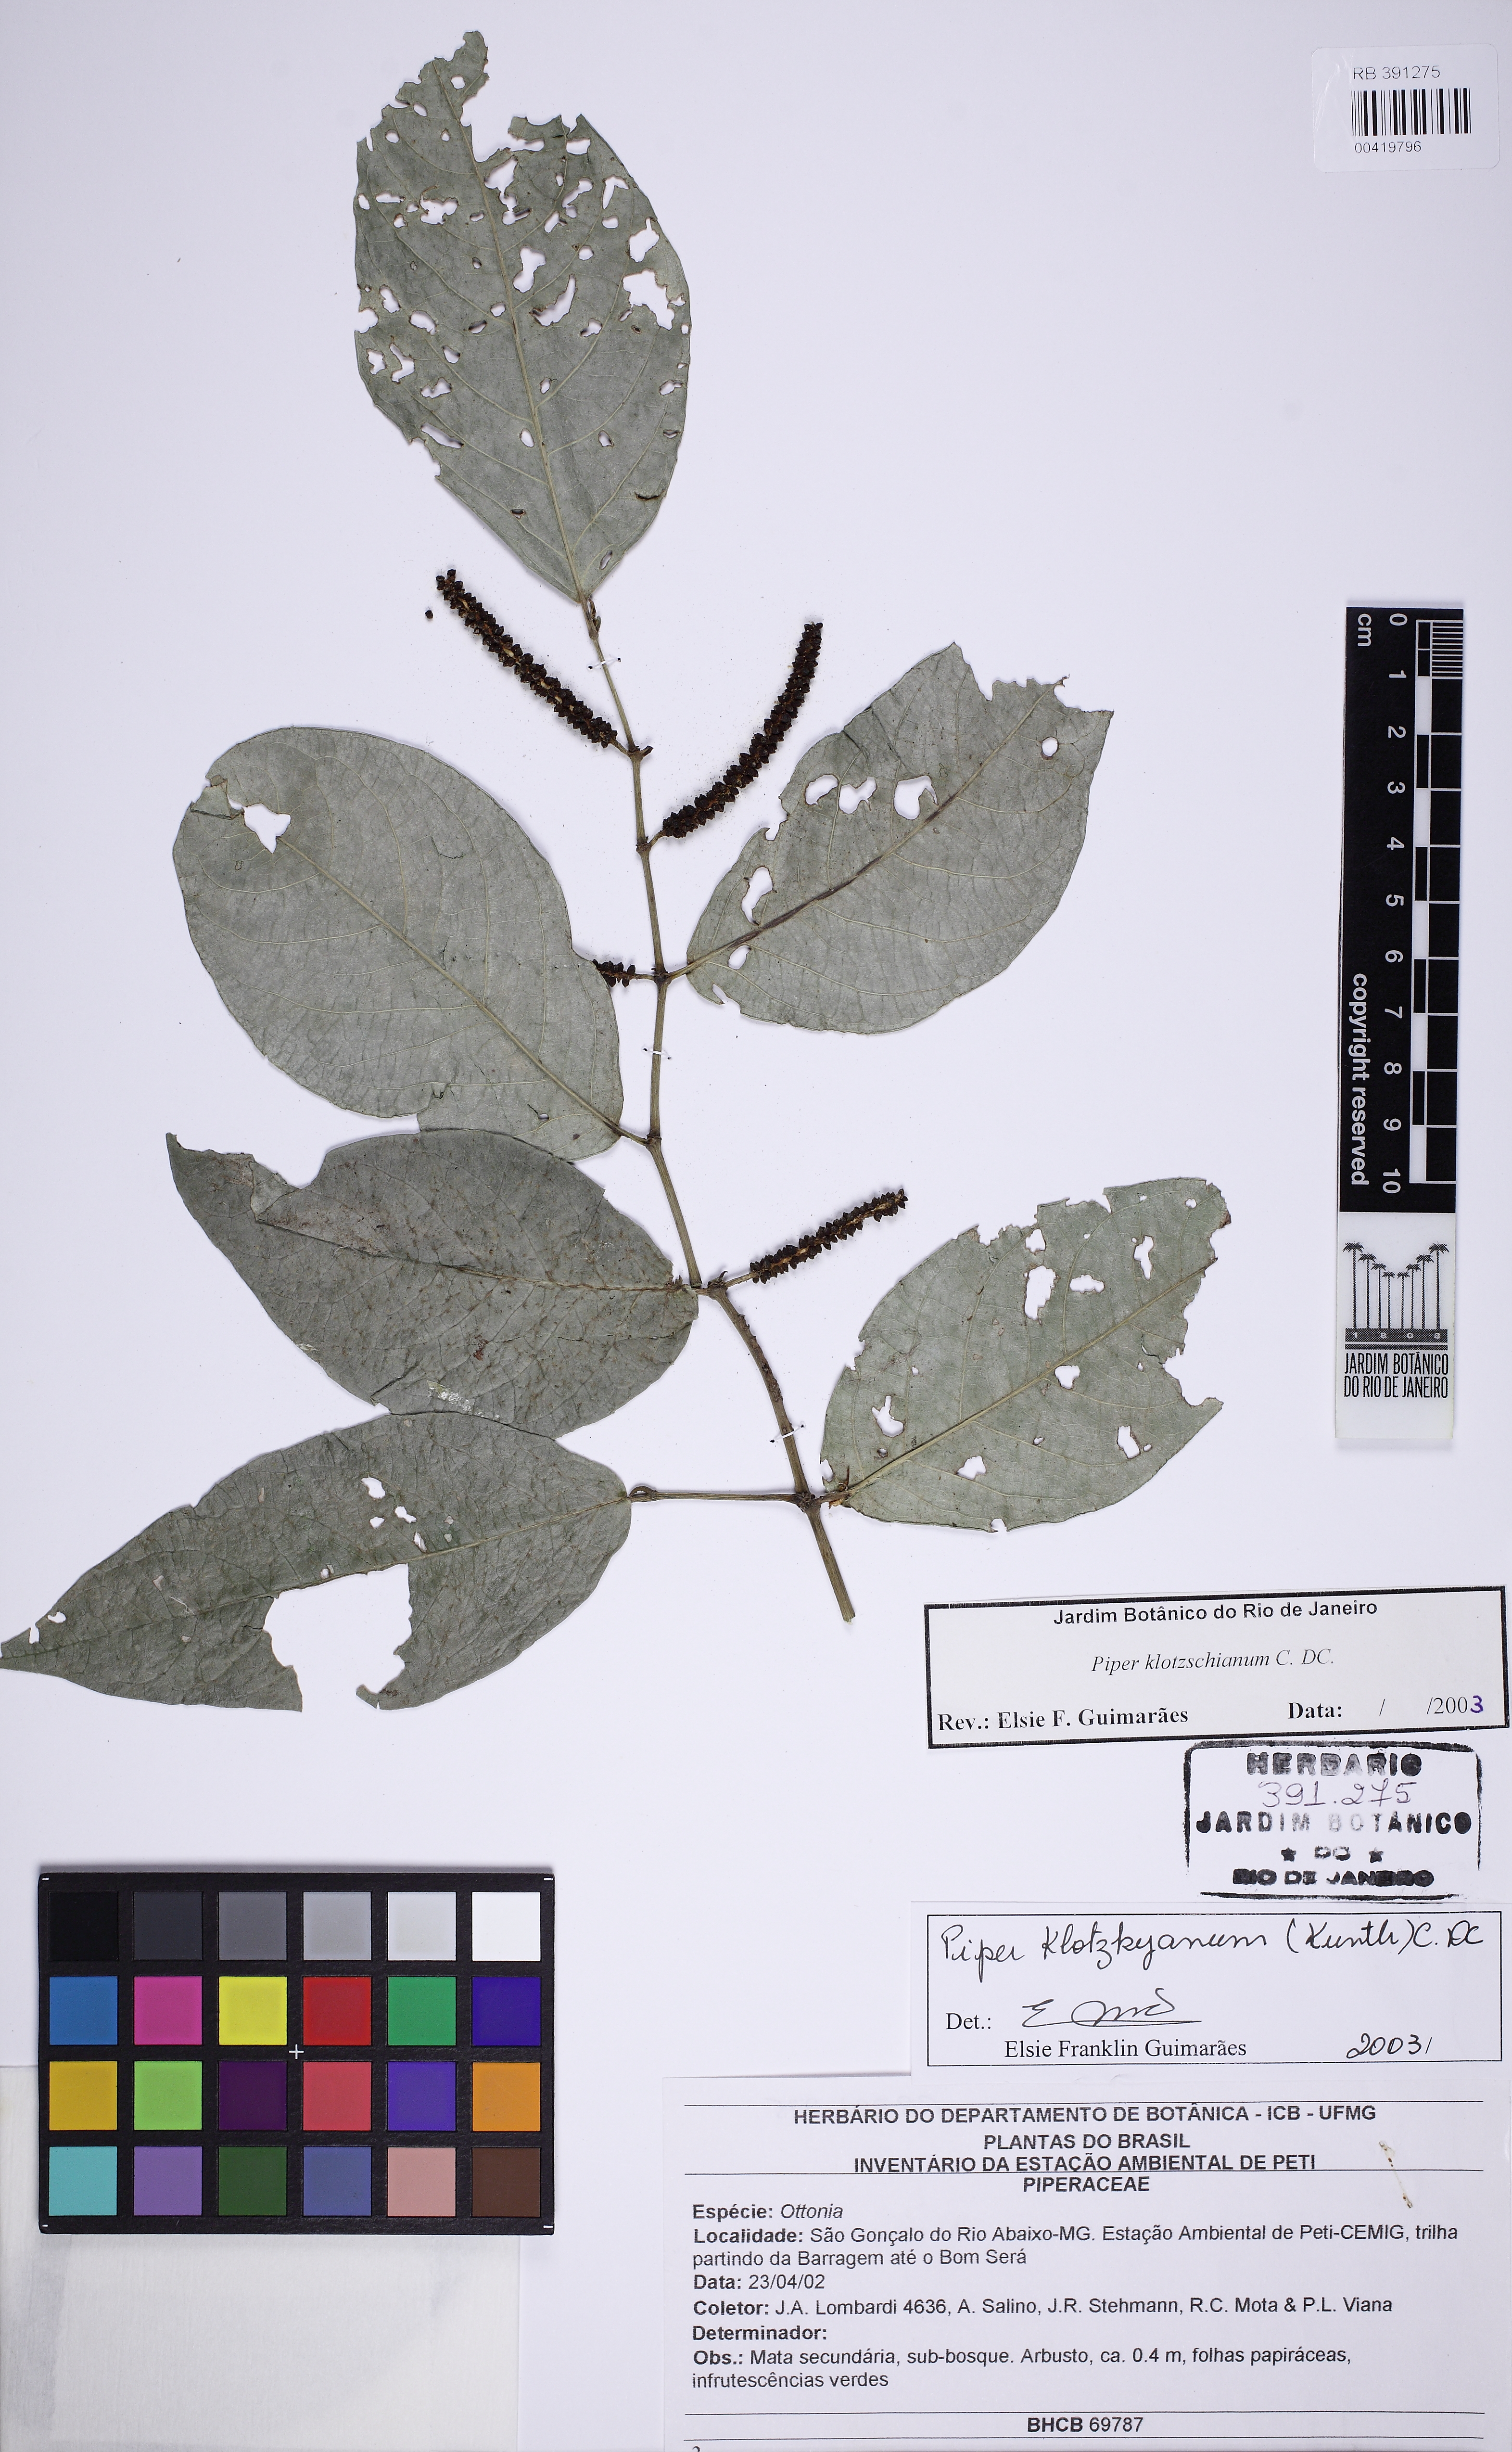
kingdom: Plantae
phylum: Tracheophyta
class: Magnoliopsida
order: Piperales
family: Piperaceae
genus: Piper
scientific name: Piper klotzschianum
